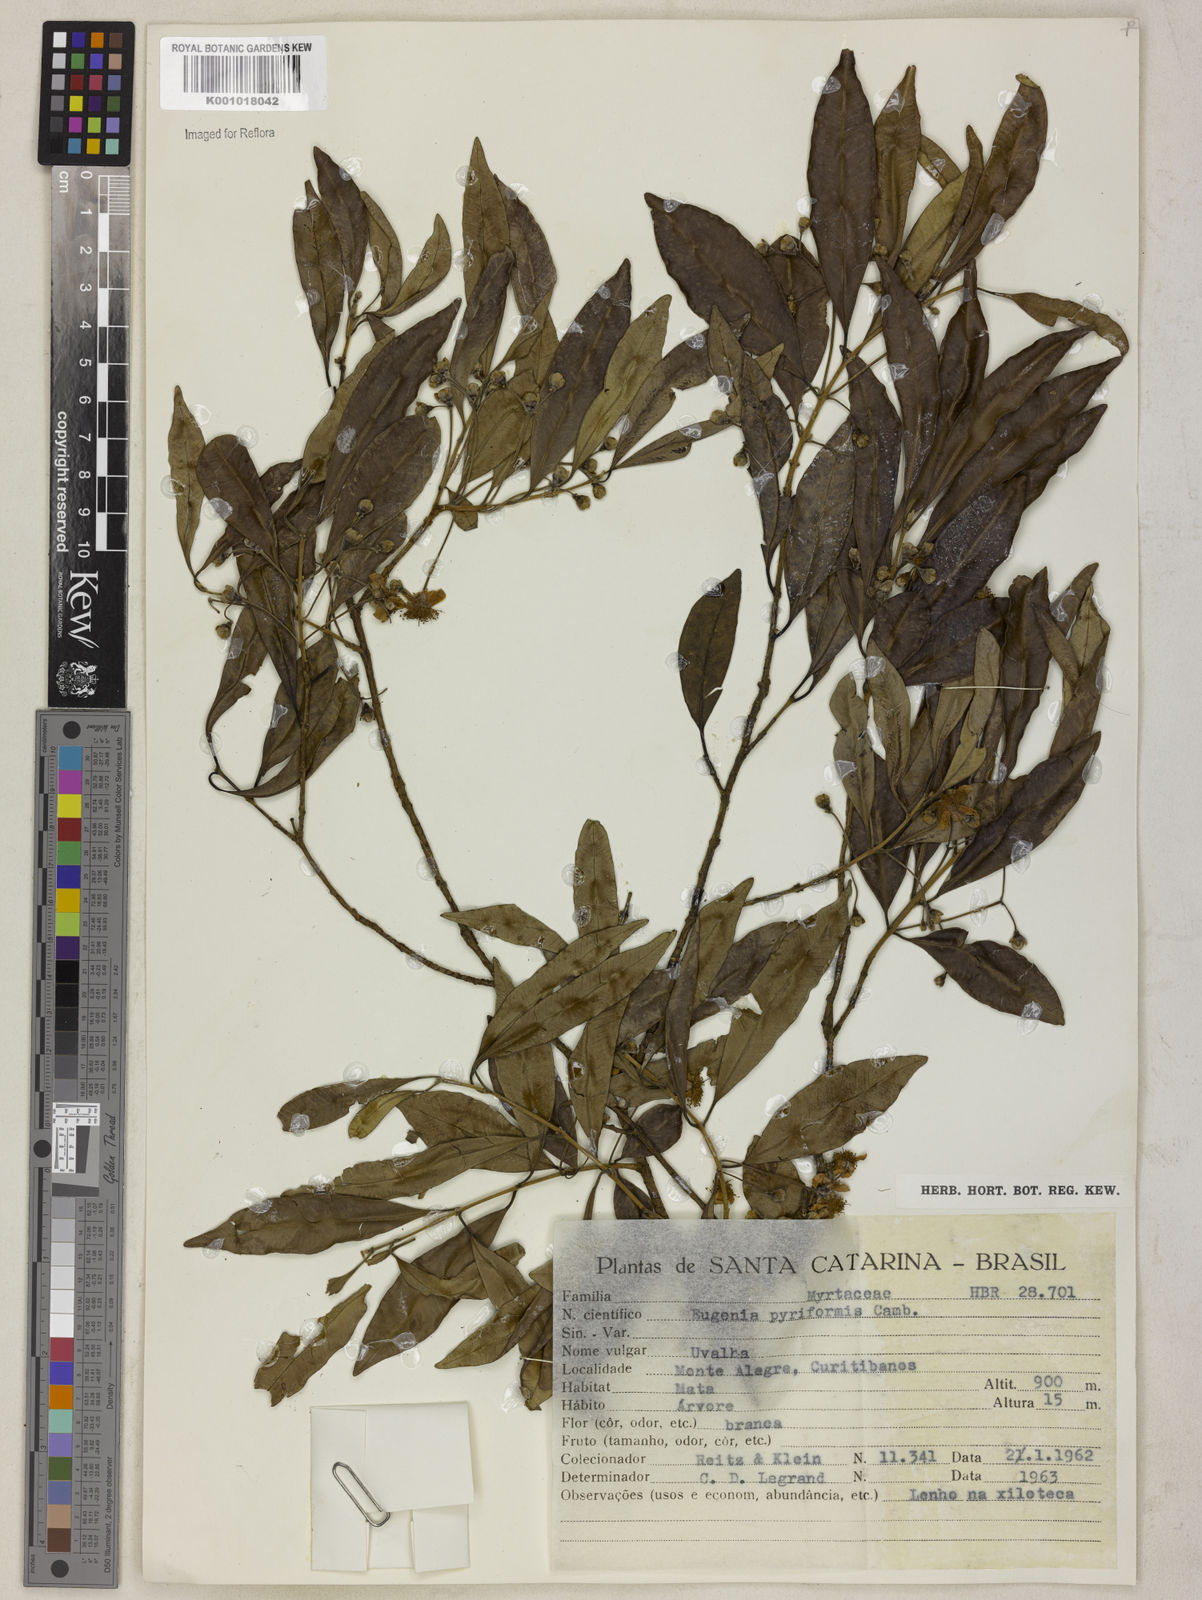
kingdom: Plantae
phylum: Tracheophyta
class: Magnoliopsida
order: Myrtales
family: Myrtaceae
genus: Eugenia
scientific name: Eugenia pyriformis
